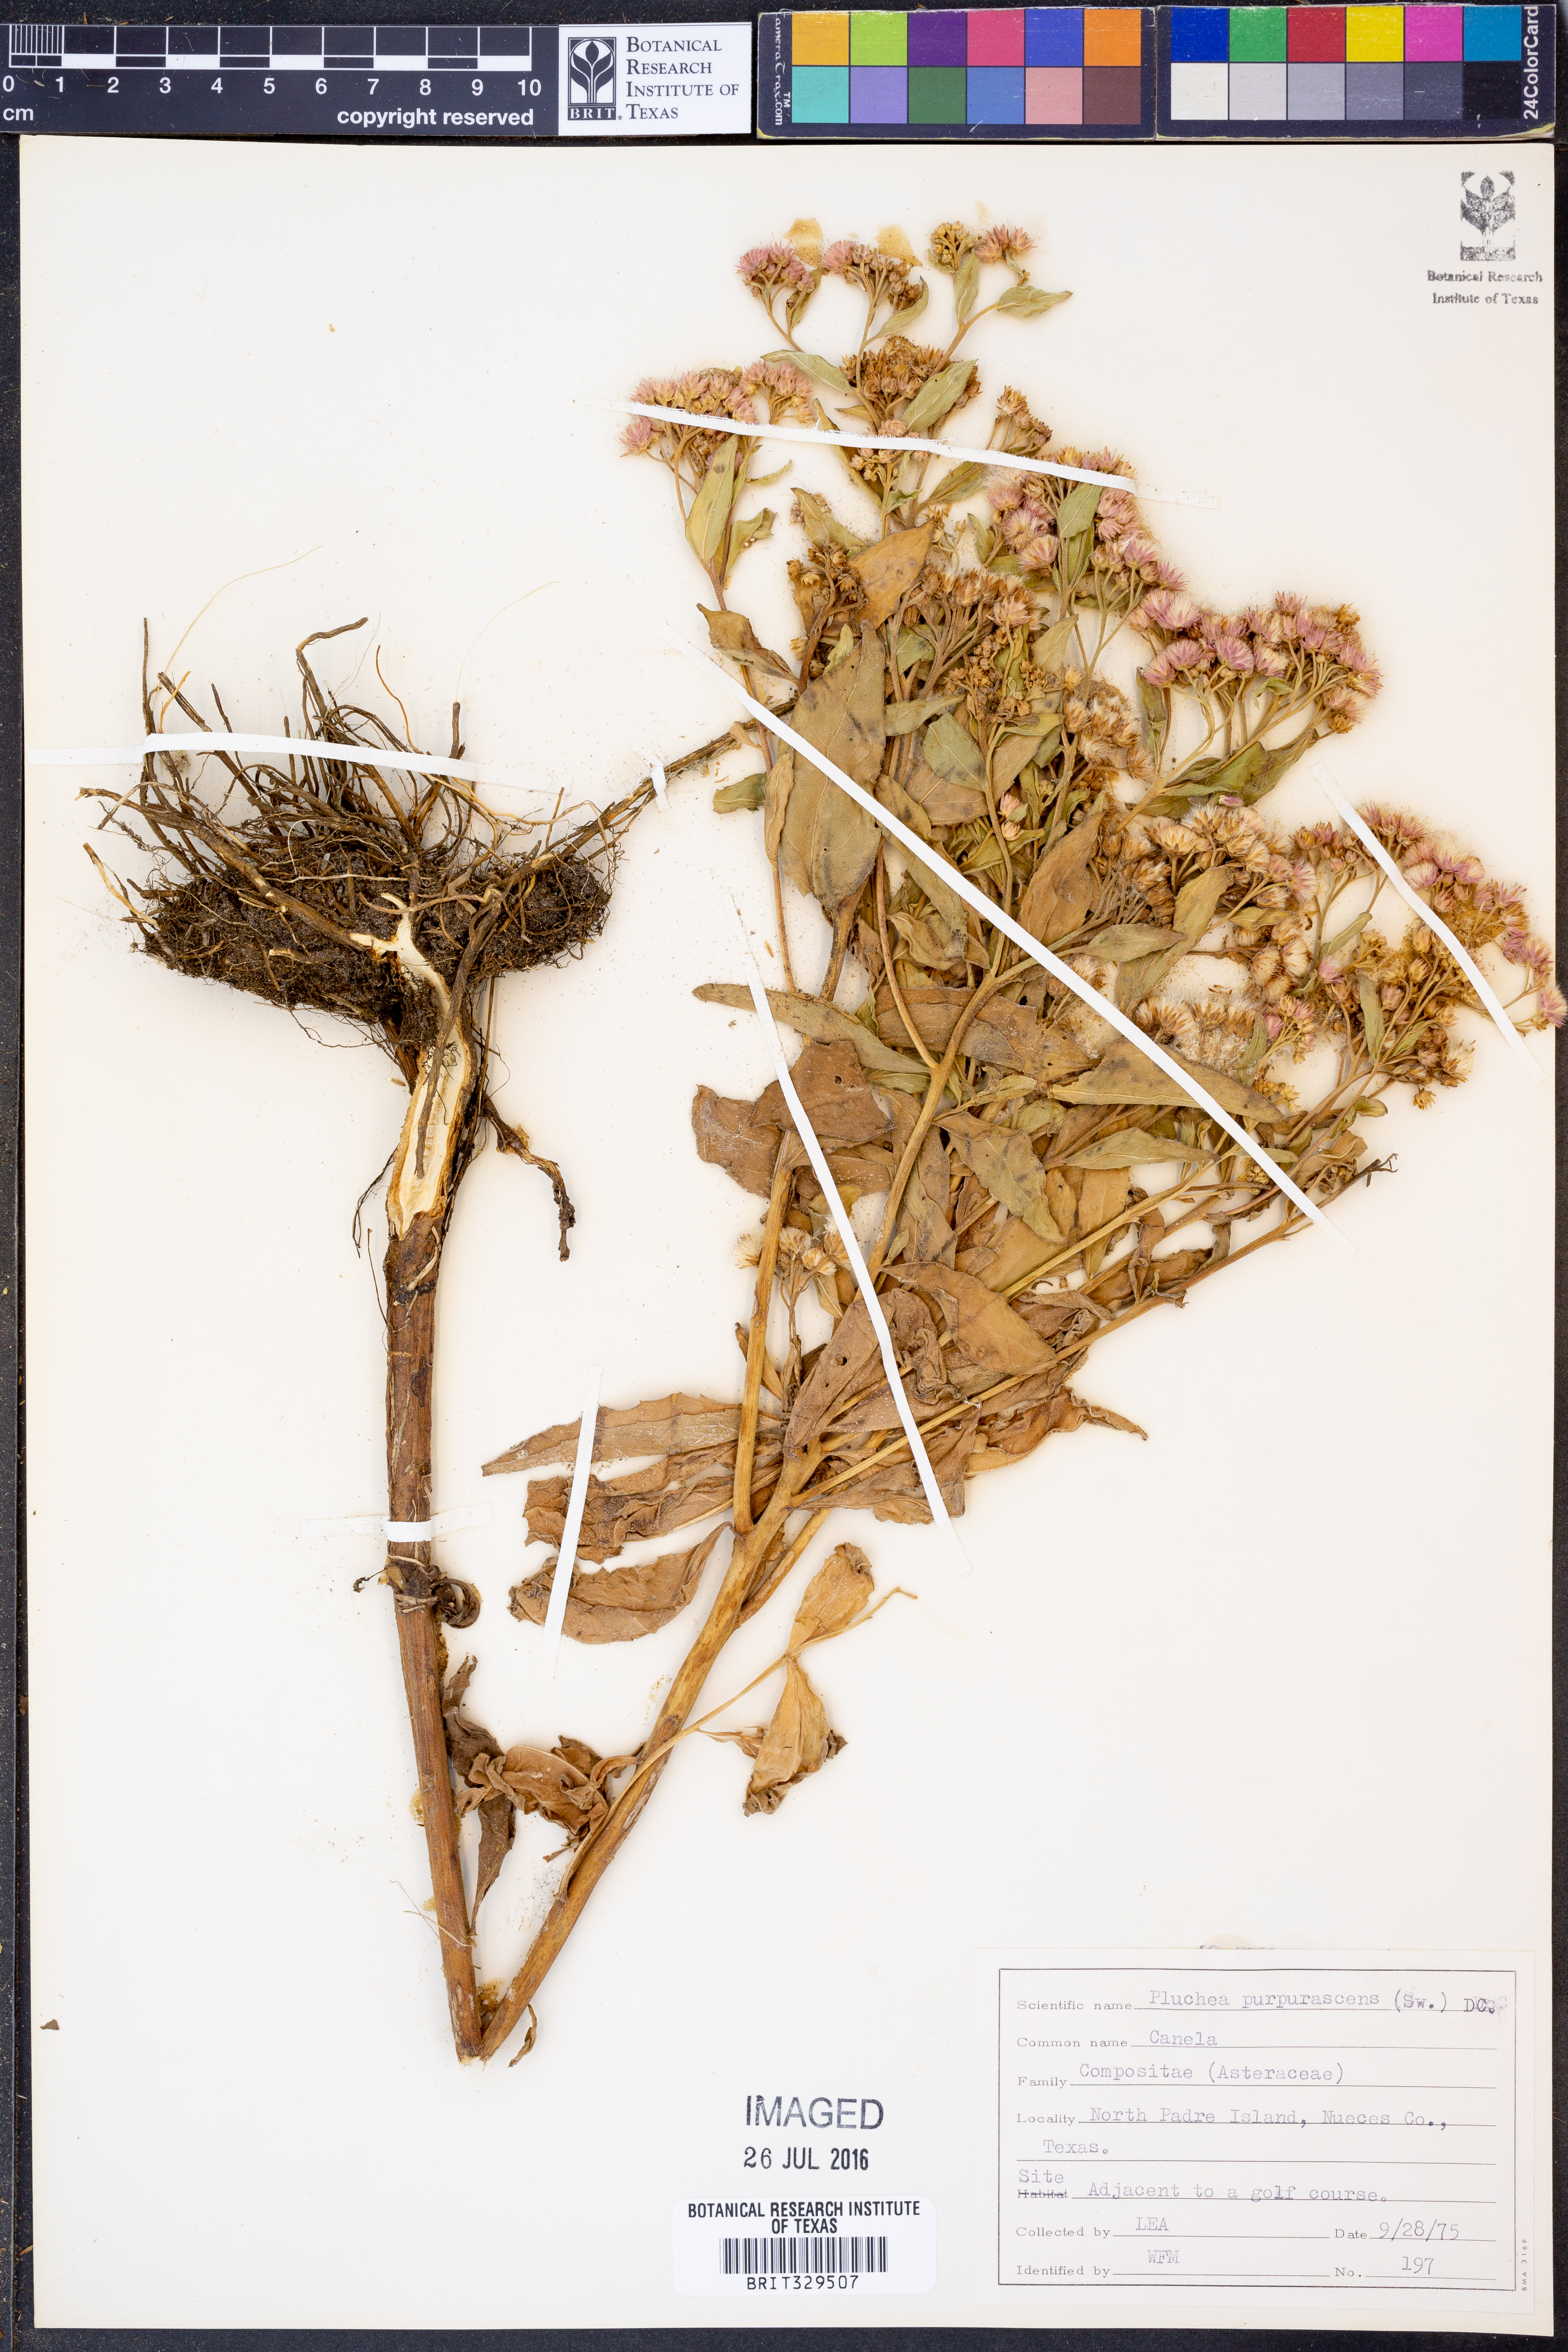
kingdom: Plantae
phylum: Tracheophyta
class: Magnoliopsida
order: Asterales
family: Asteraceae
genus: Pluchea
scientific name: Pluchea odorata
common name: Saltmarsh fleabane
